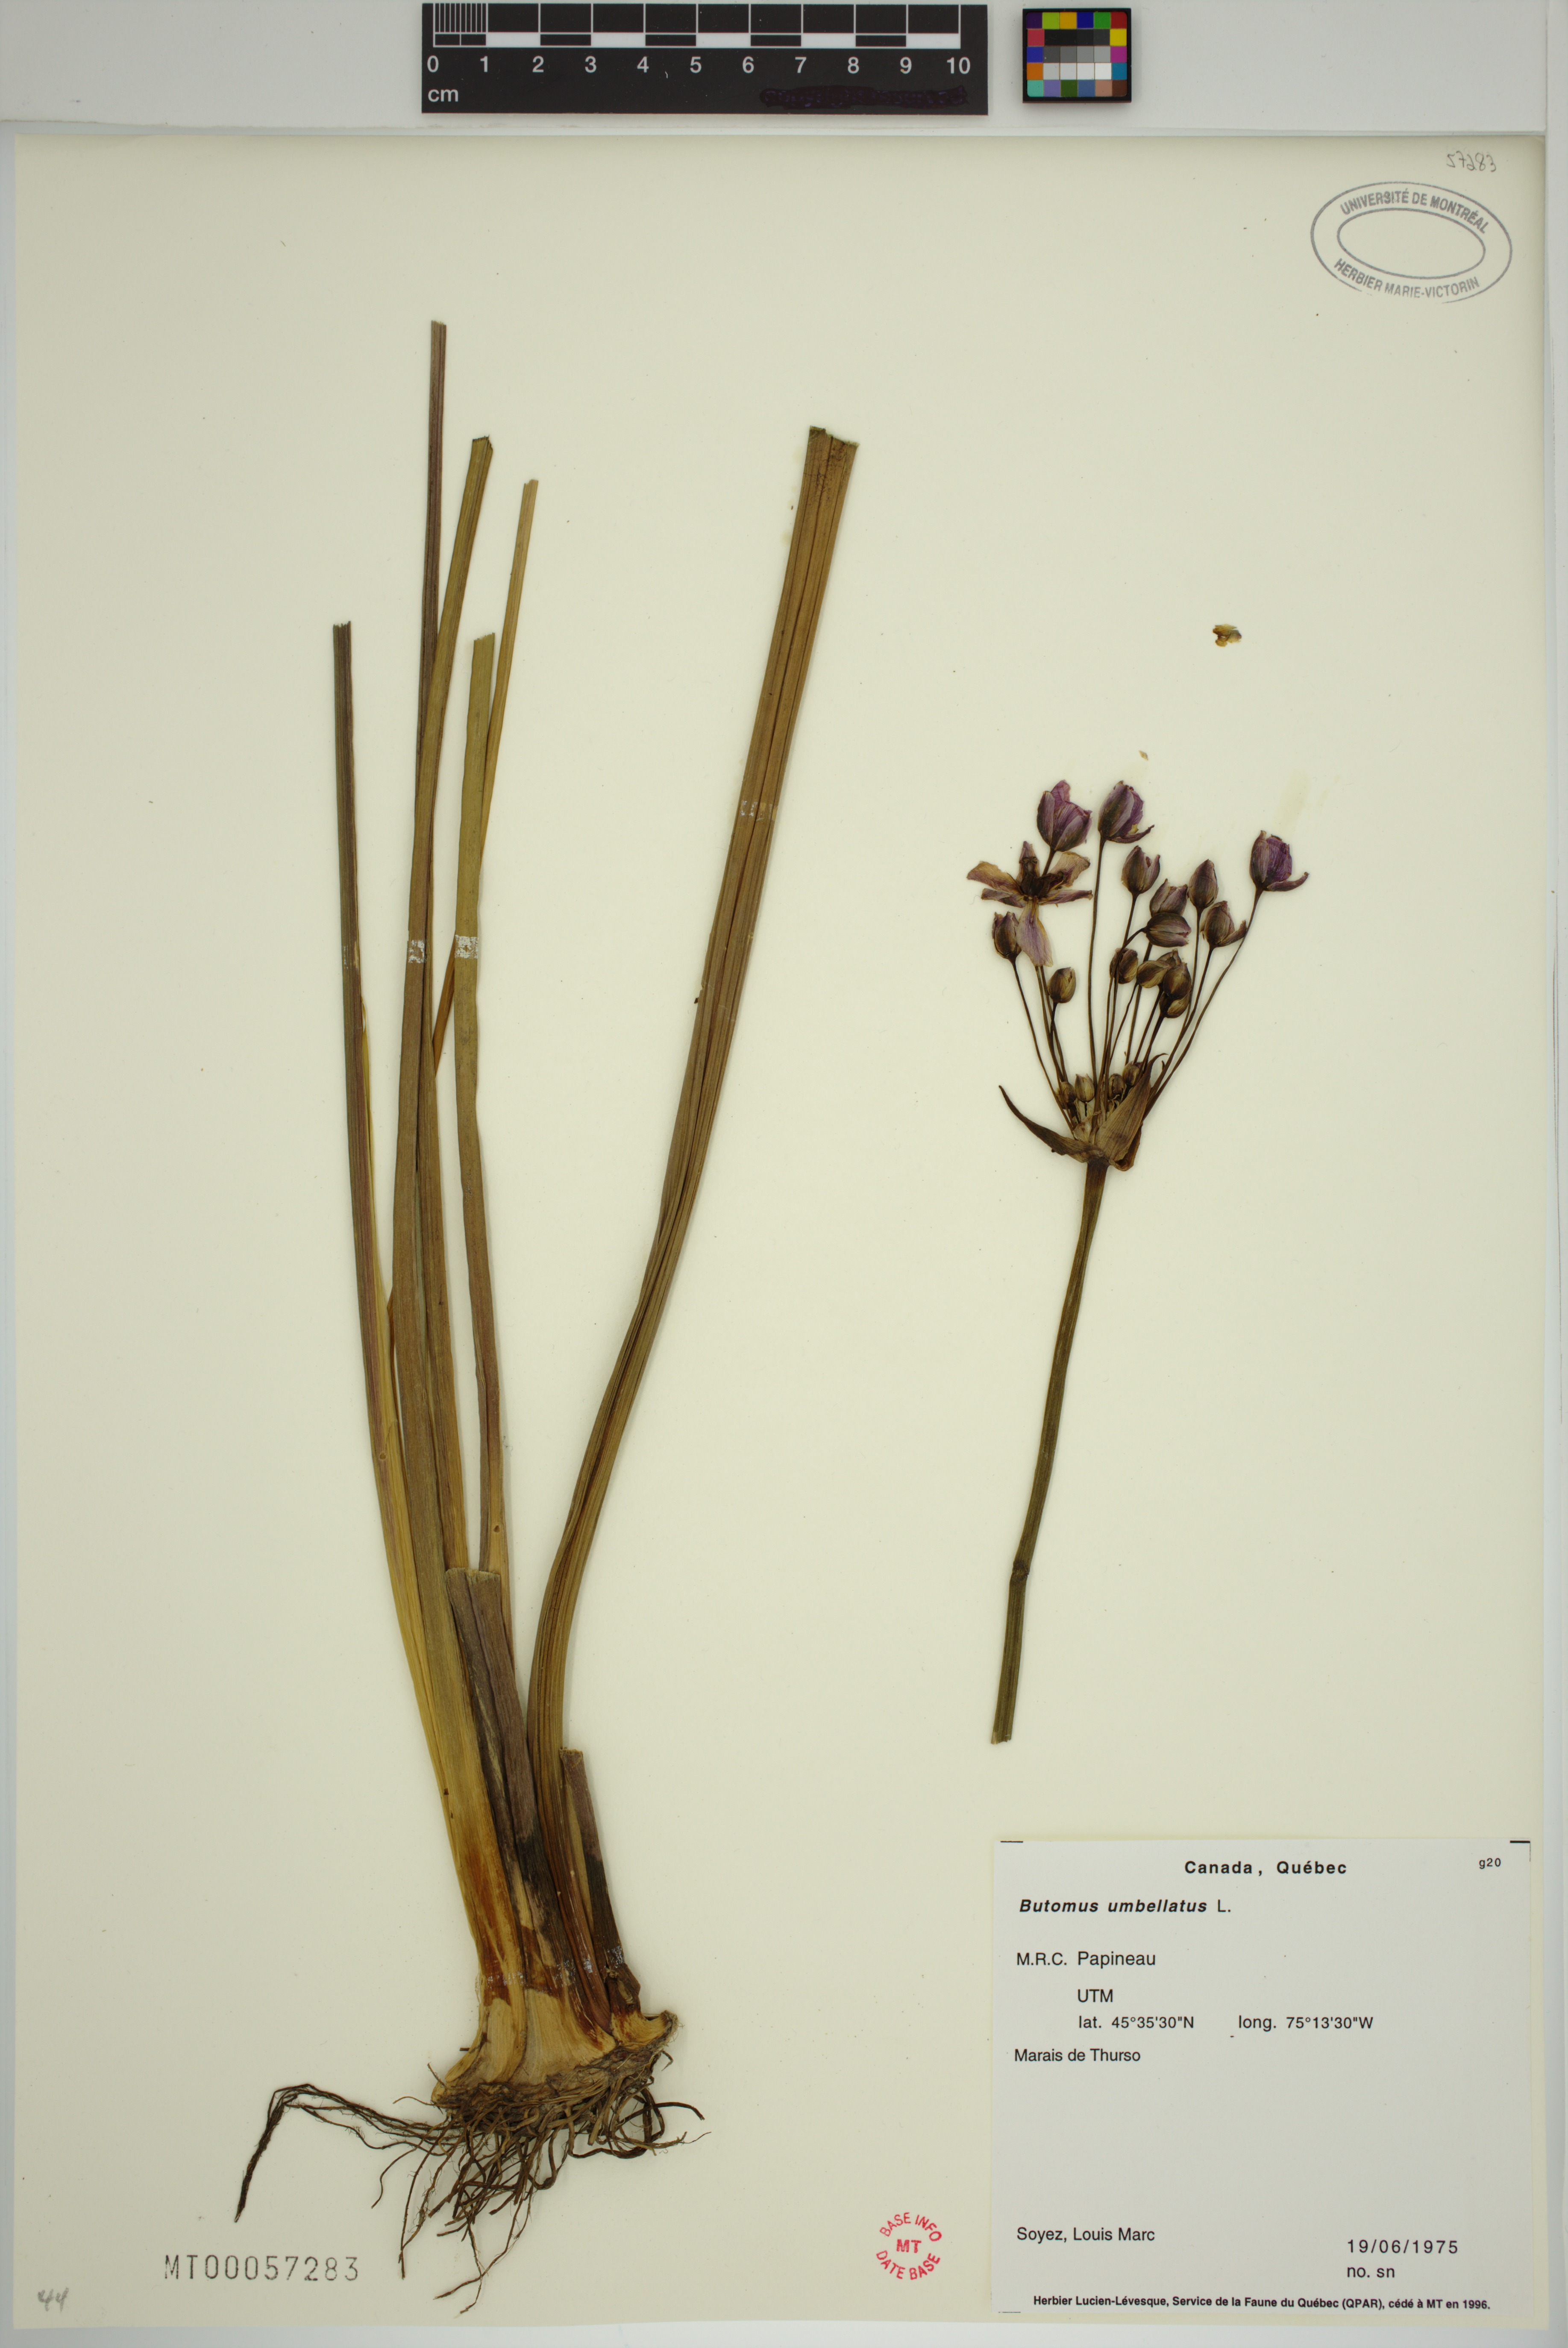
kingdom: Plantae
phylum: Tracheophyta
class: Liliopsida
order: Alismatales
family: Butomaceae
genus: Butomus
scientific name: Butomus umbellatus
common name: Flowering-rush
